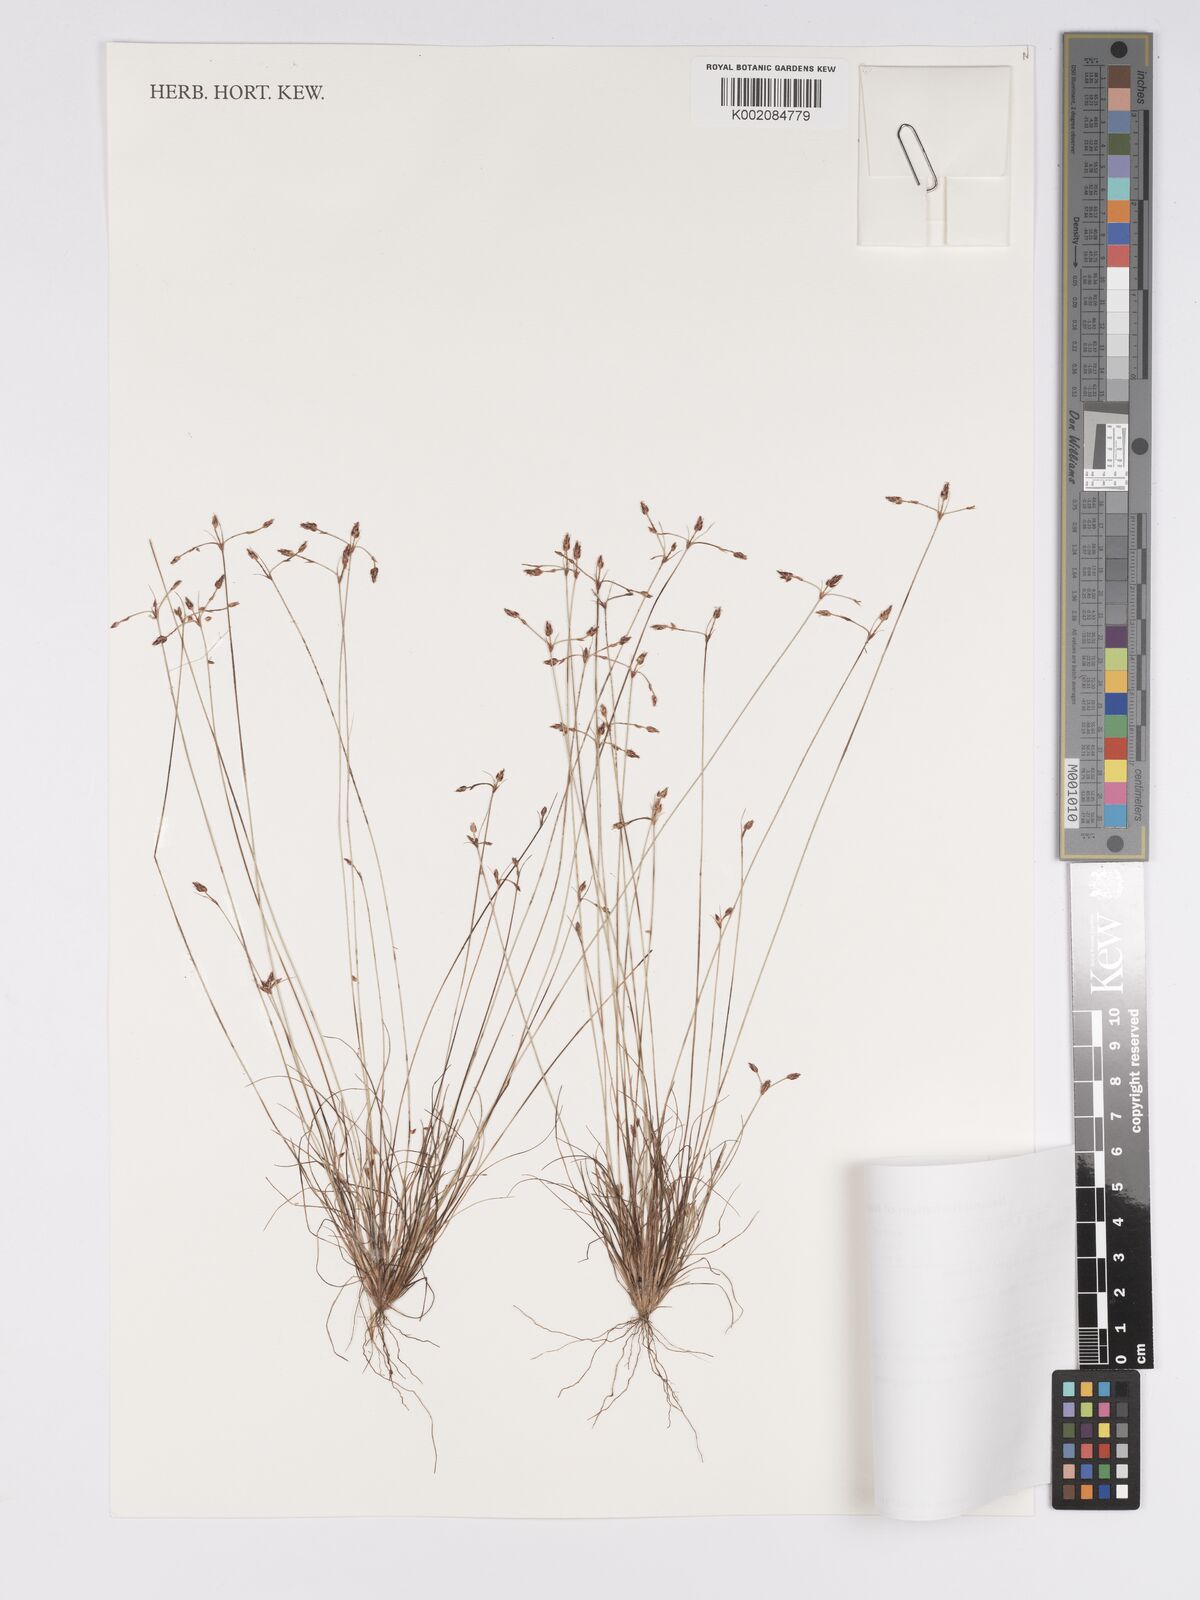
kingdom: Plantae
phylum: Tracheophyta
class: Liliopsida
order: Poales
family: Cyperaceae
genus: Bulbostylis
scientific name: Bulbostylis hispidula
